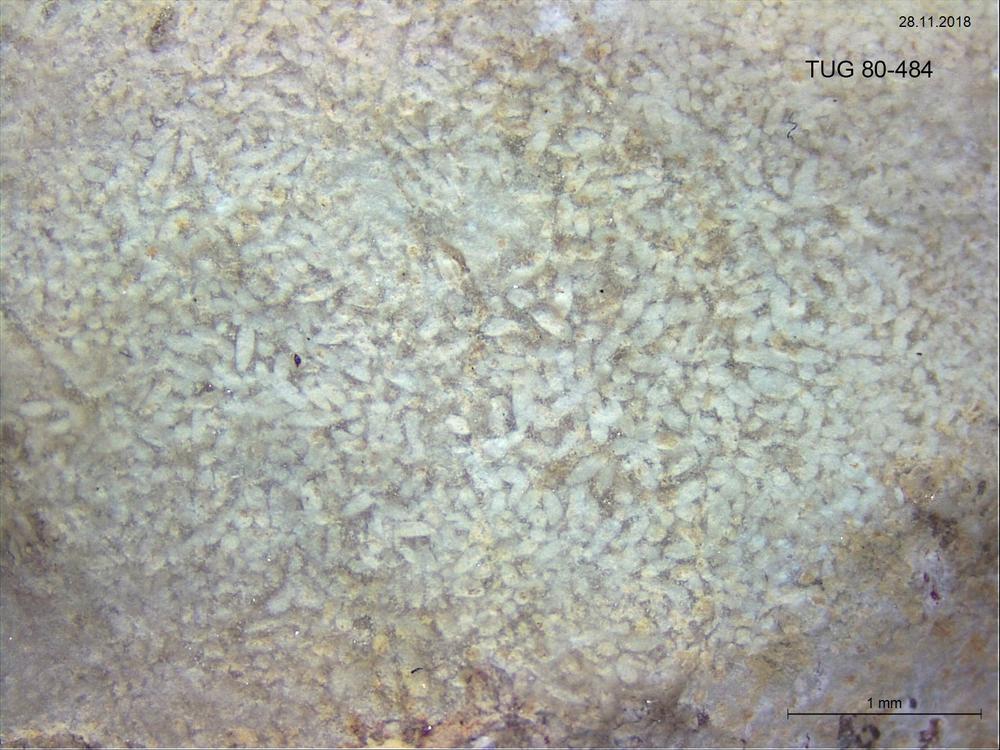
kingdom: Animalia
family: Coprulidae
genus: Coprulus
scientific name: Coprulus
